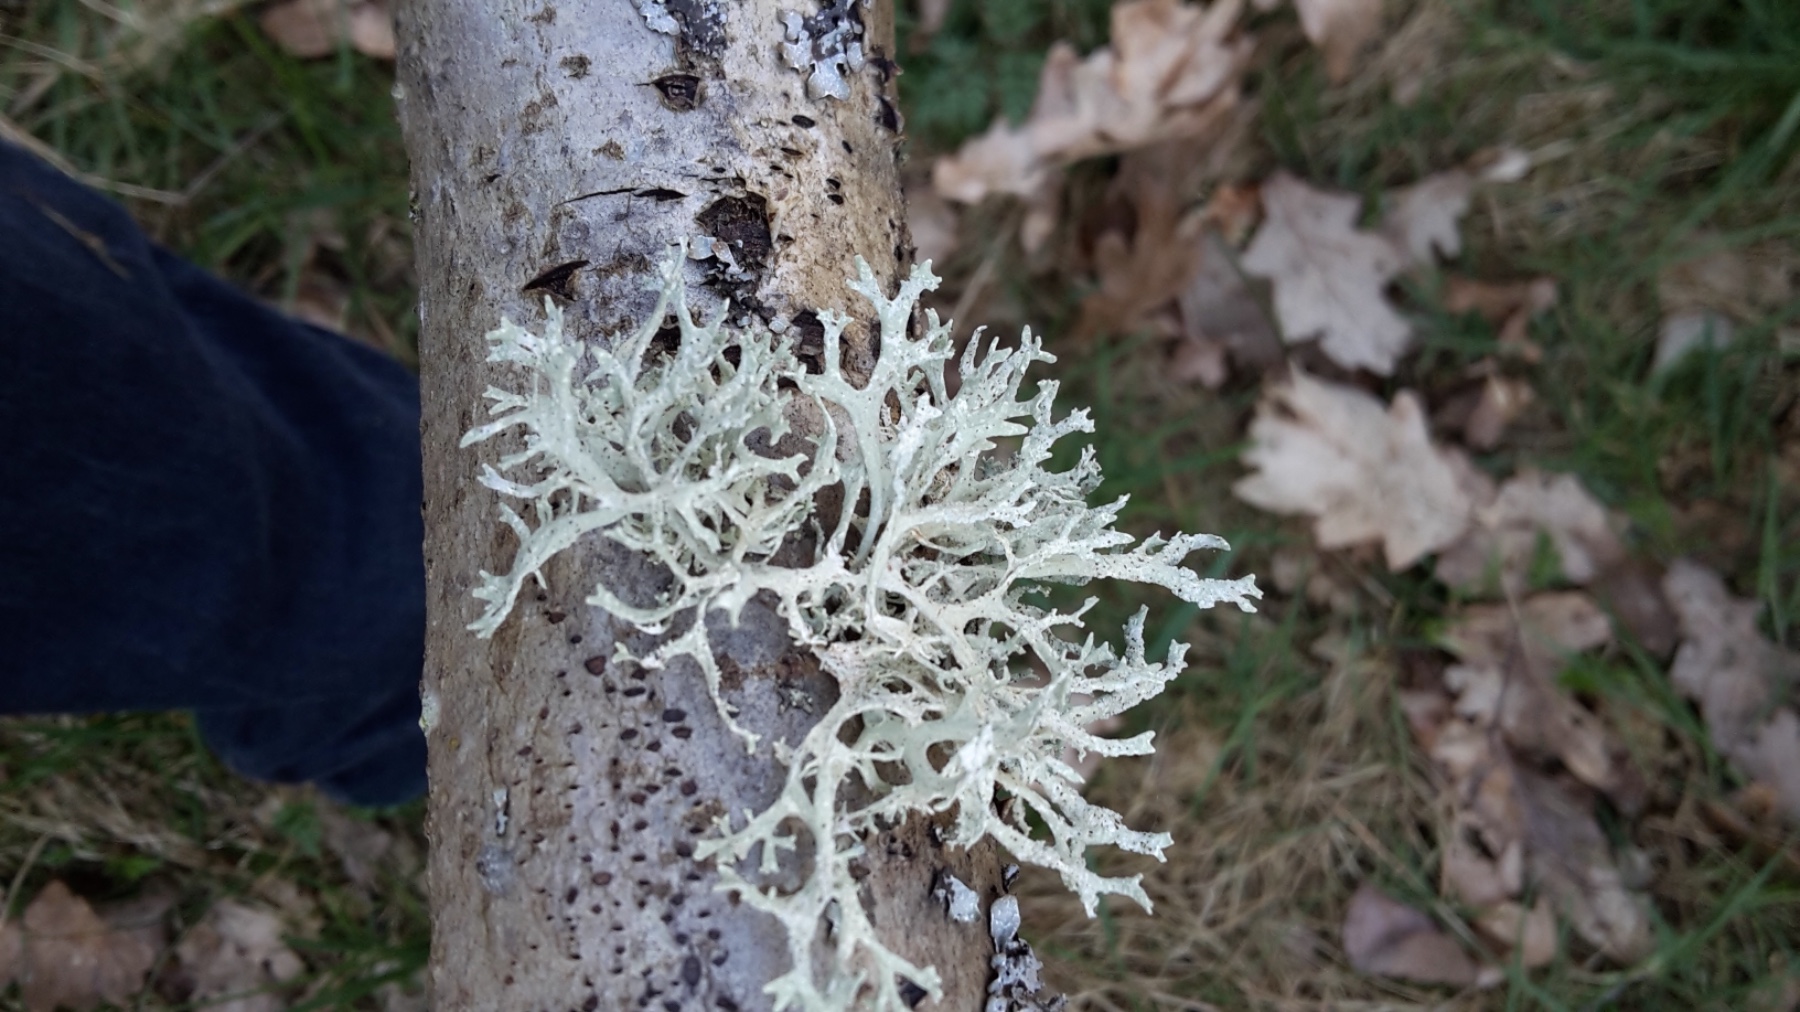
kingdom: Fungi
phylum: Ascomycota
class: Lecanoromycetes
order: Lecanorales
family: Parmeliaceae
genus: Evernia
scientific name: Evernia prunastri
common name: almindelig slåenlav
